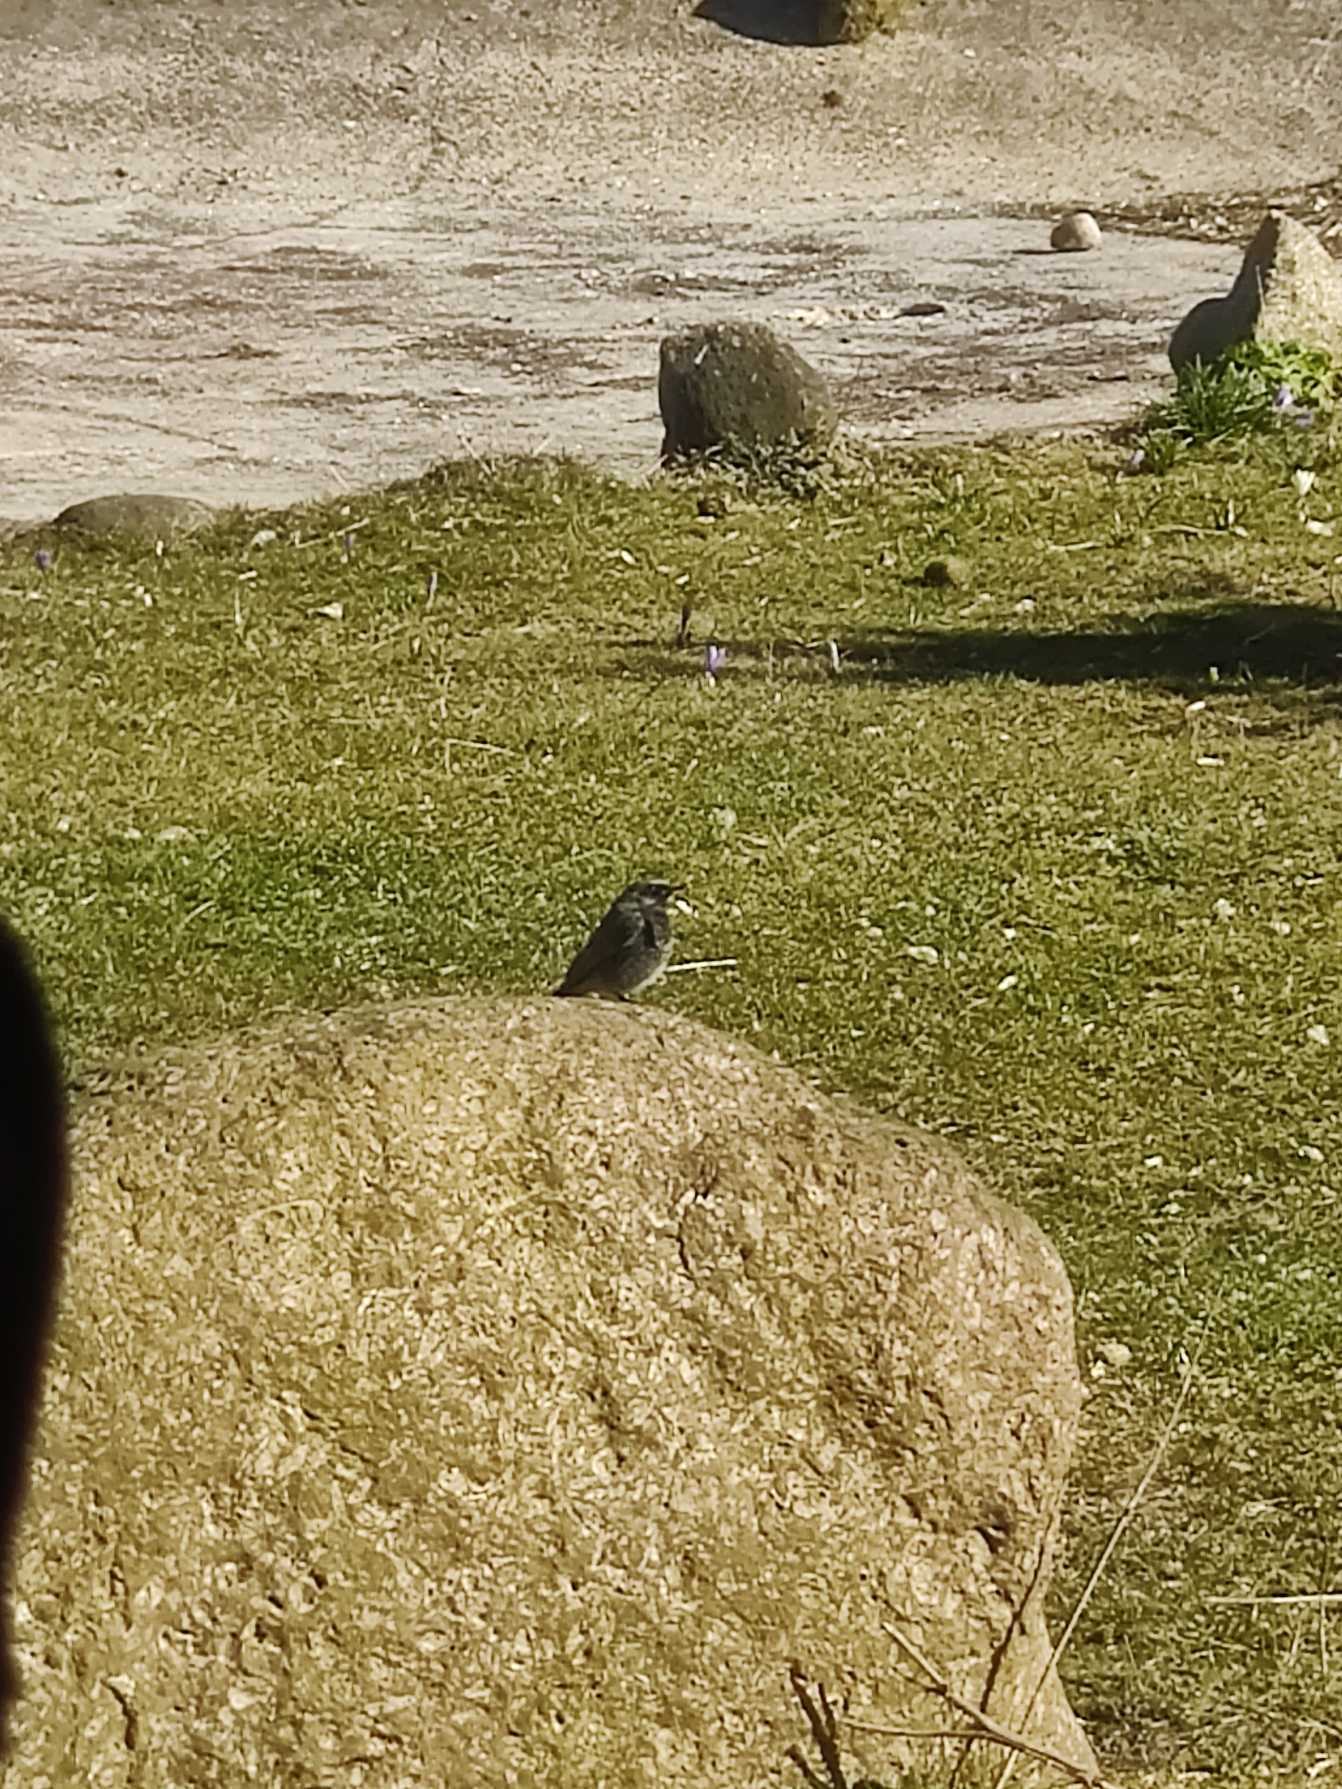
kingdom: Animalia
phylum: Chordata
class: Aves
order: Passeriformes
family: Muscicapidae
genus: Phoenicurus
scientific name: Phoenicurus ochruros
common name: Husrødstjert
